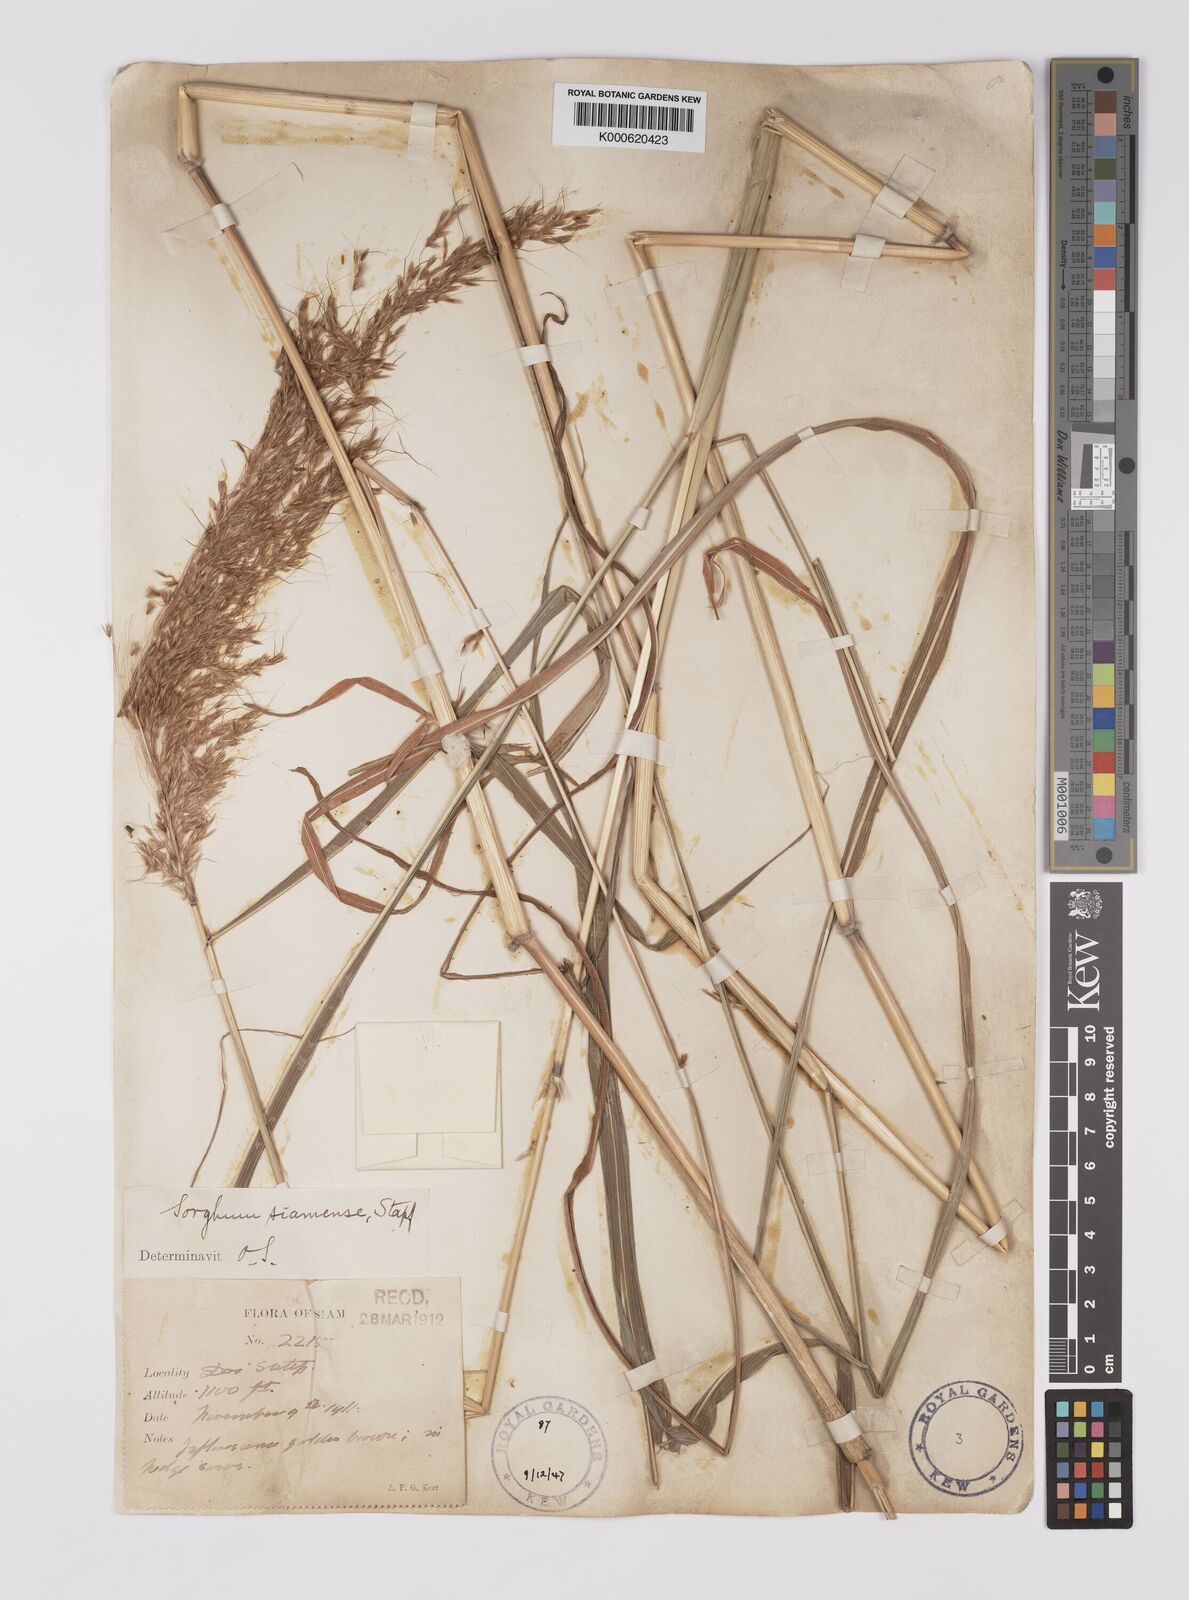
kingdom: Plantae
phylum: Tracheophyta
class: Liliopsida
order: Poales
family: Poaceae
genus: Sorghum
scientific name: Sorghum burmahicum
